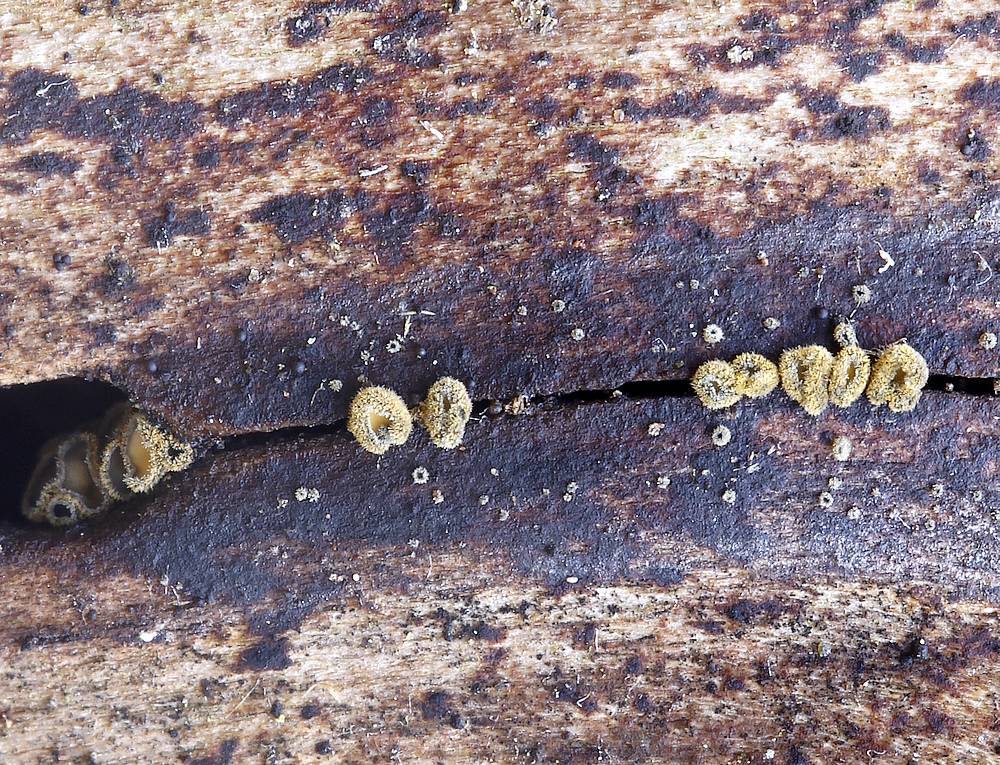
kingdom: Fungi
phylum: Ascomycota
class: Leotiomycetes
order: Helotiales
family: Lachnaceae
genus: Neodasyscypha
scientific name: Neodasyscypha cerina
